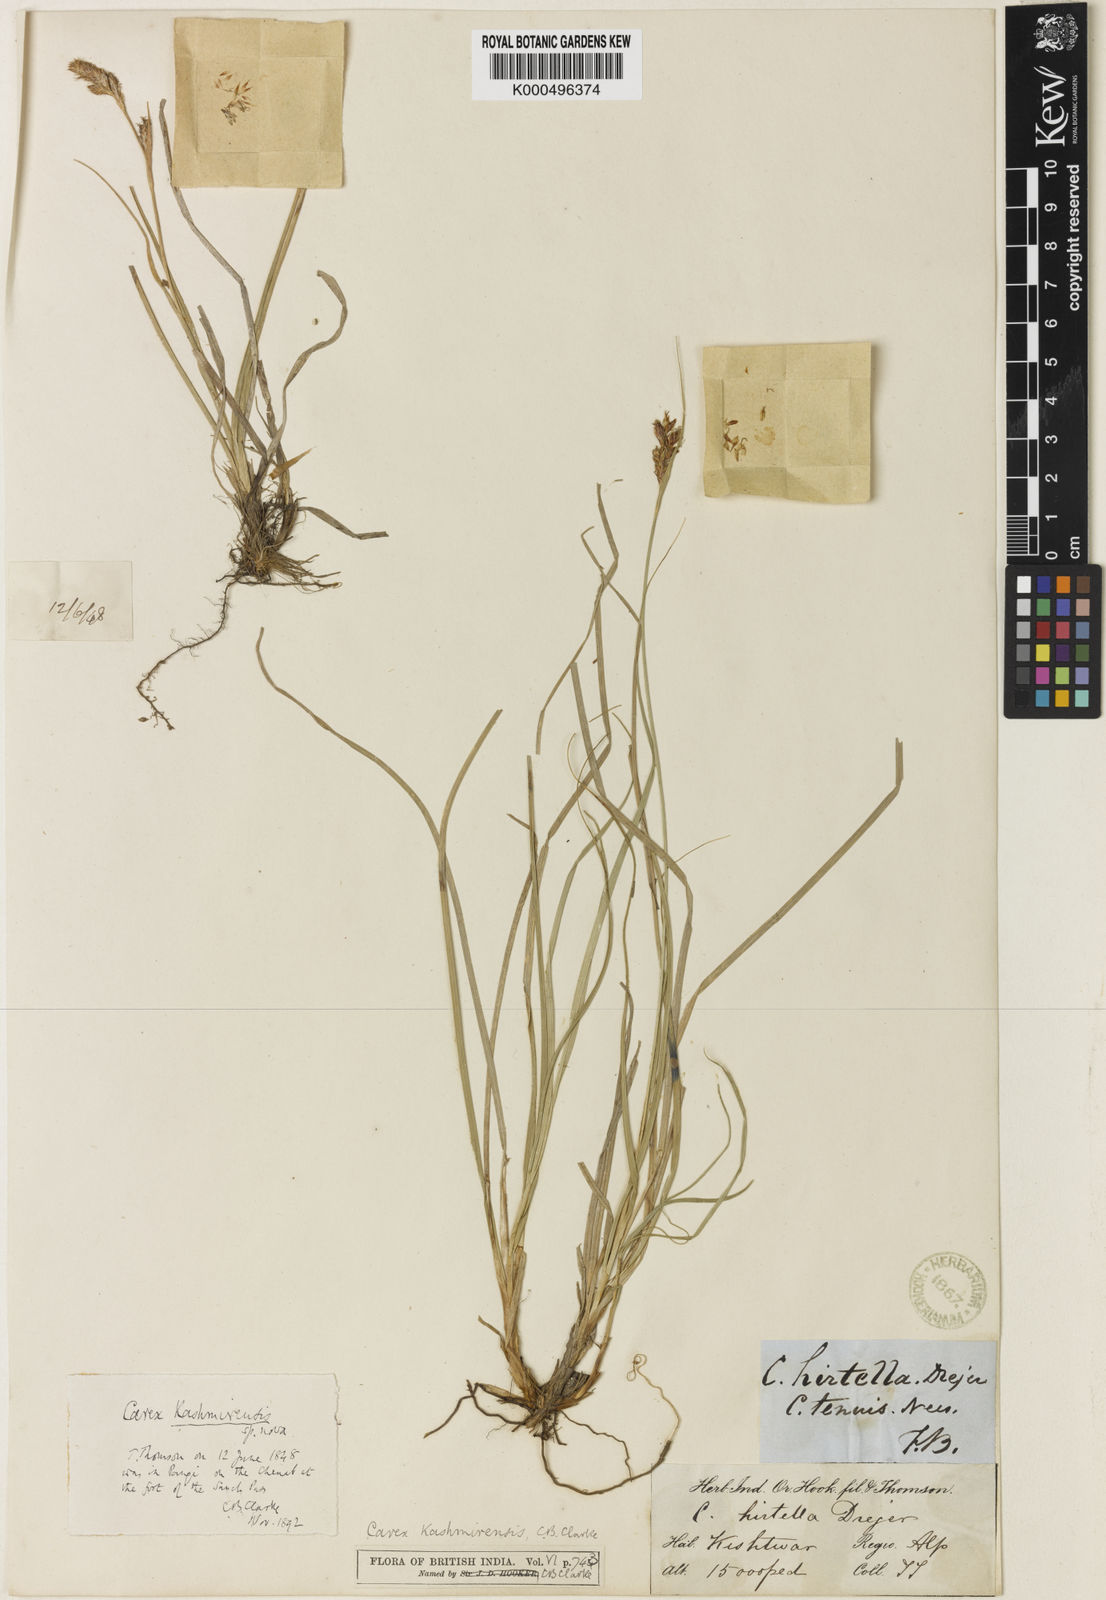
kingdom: Plantae
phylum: Tracheophyta
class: Liliopsida
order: Poales
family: Cyperaceae
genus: Carex
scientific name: Carex kashmirensis
